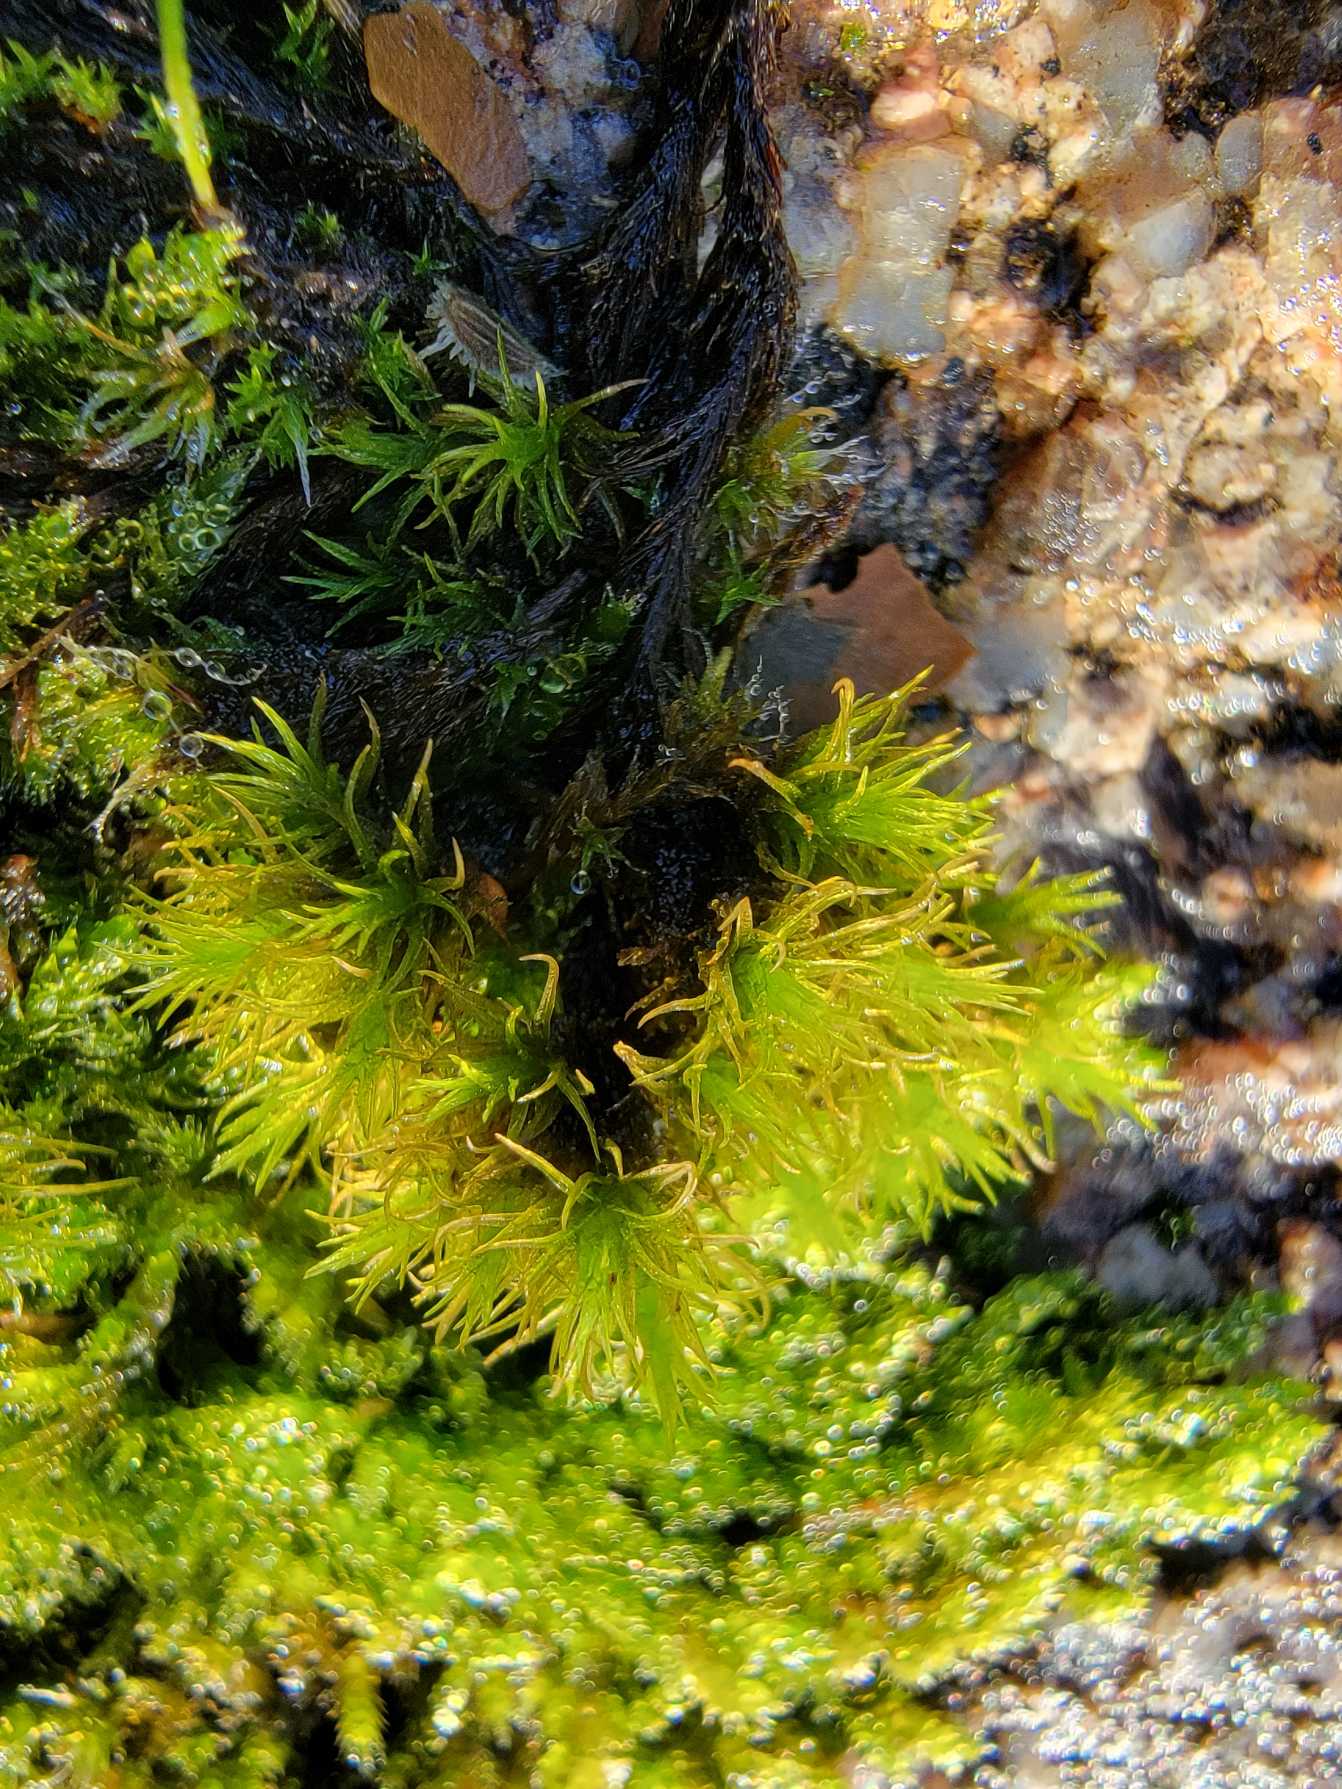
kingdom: Plantae
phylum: Bryophyta
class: Bryopsida
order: Grimmiales
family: Ptychomitriaceae
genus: Ptychomitrium
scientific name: Ptychomitrium polyphyllum
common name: Mangebladet foldhætte
